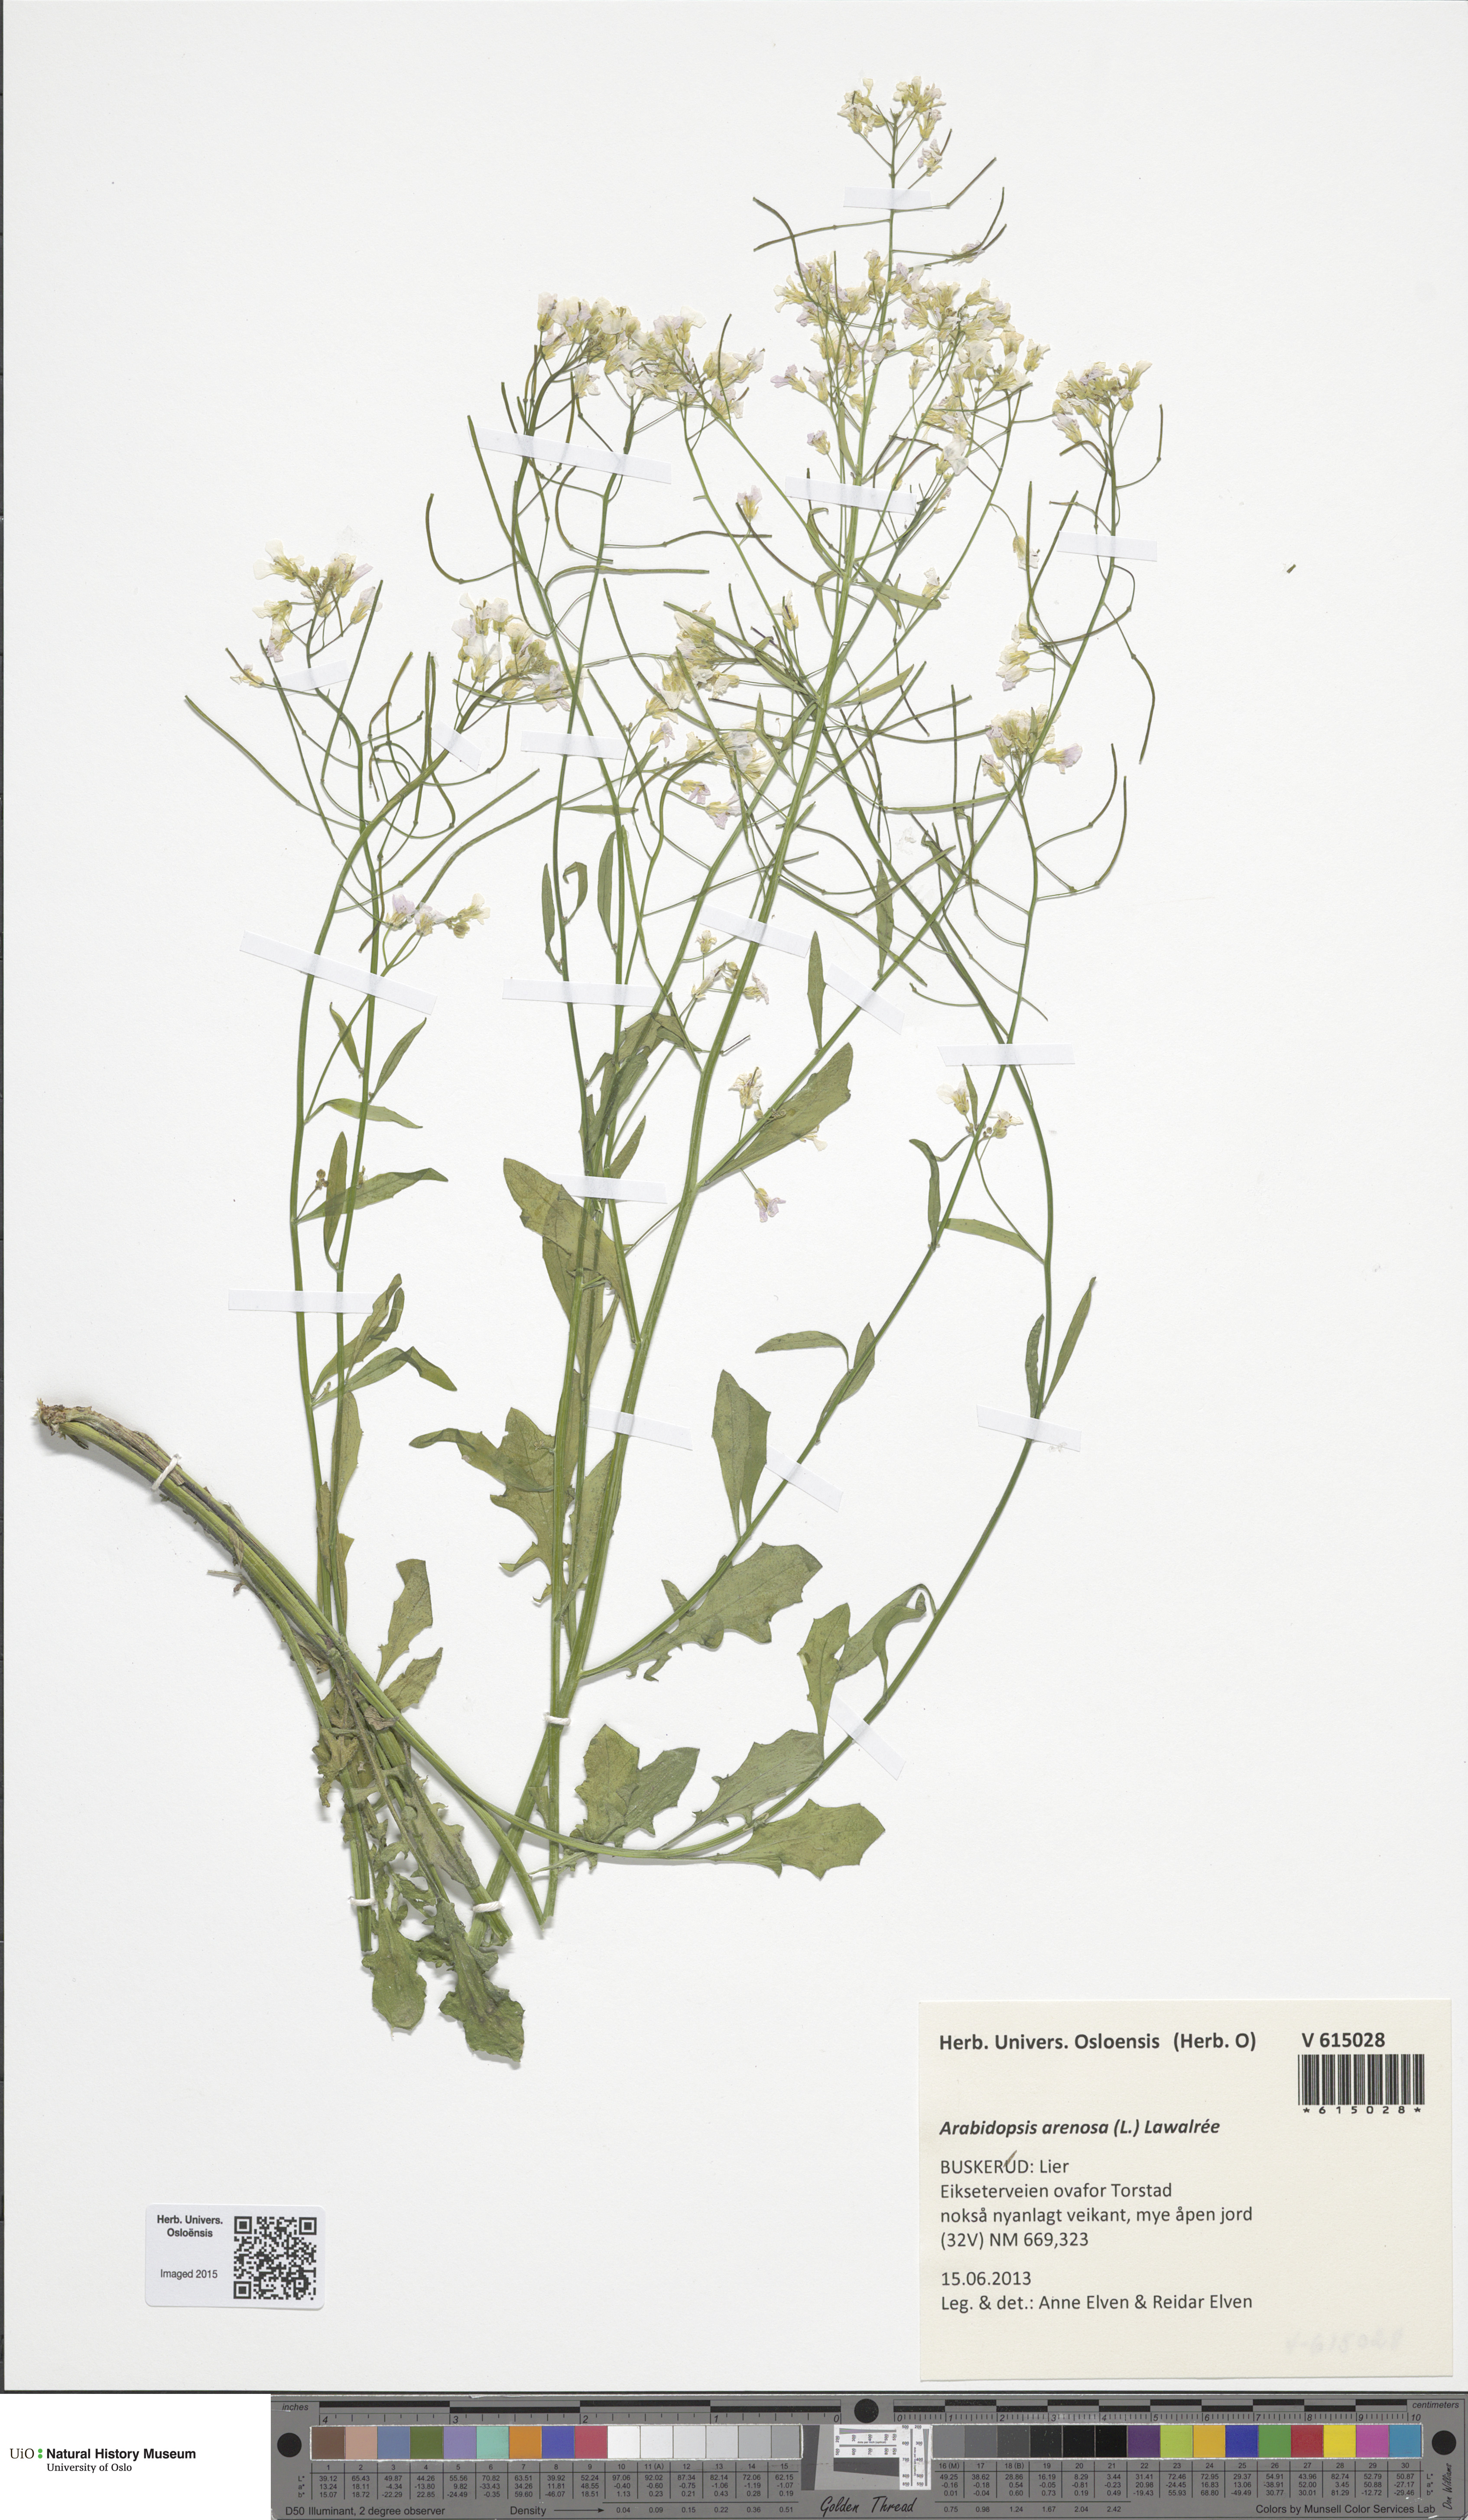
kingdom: Plantae
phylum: Tracheophyta
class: Magnoliopsida
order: Brassicales
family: Brassicaceae
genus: Arabidopsis
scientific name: Arabidopsis arenosa
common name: Sand rock-cress
